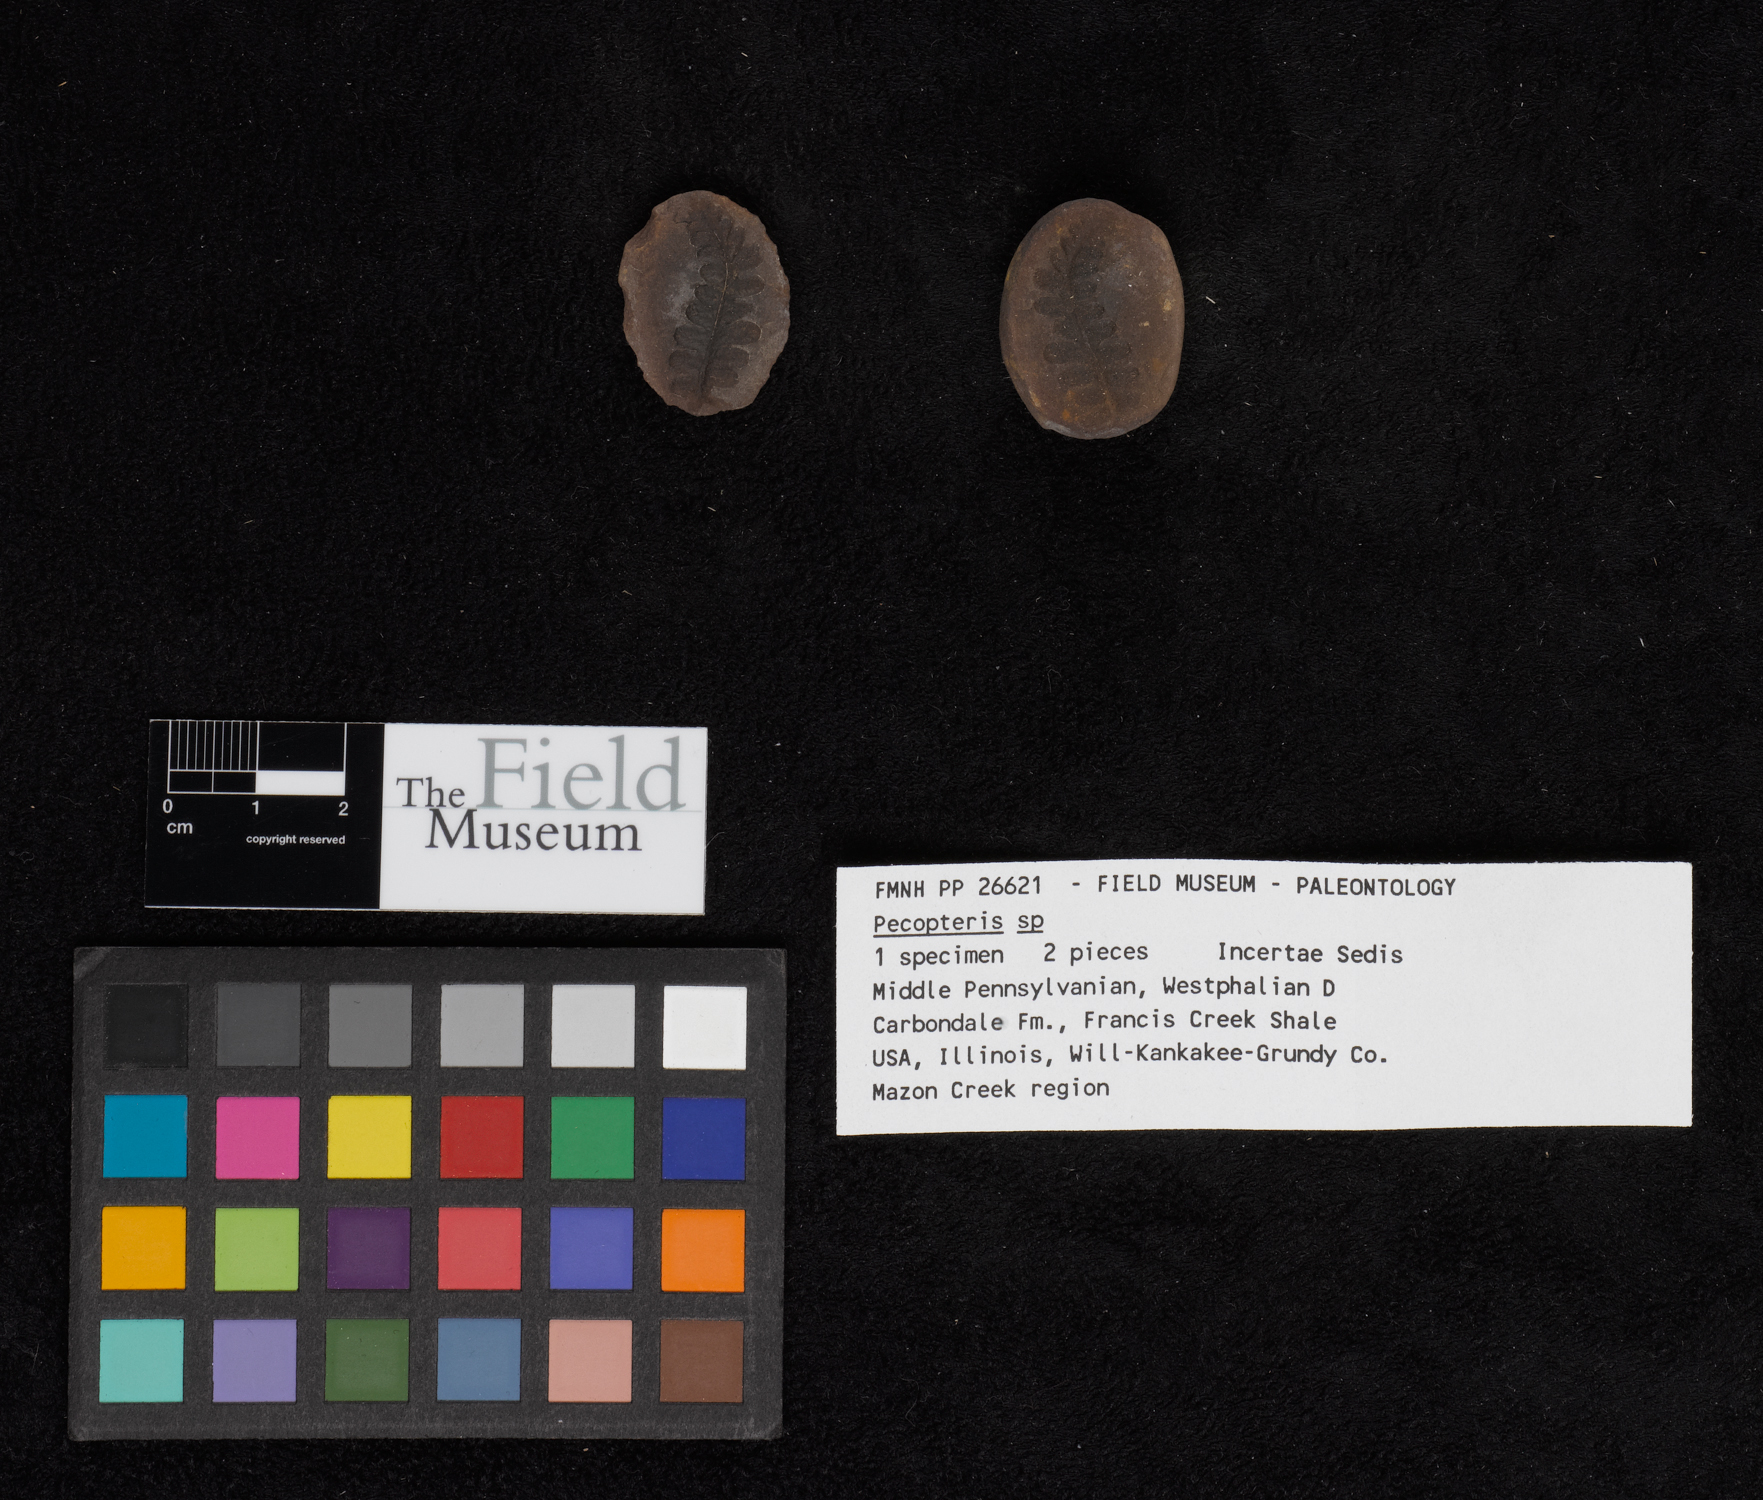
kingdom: Plantae
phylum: Tracheophyta
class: Polypodiopsida
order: Marattiales
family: Asterothecaceae
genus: Pecopteris
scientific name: Pecopteris
